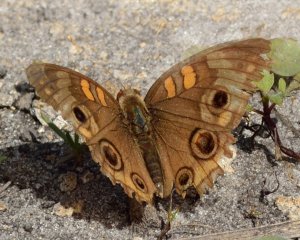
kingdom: Animalia
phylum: Arthropoda
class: Insecta
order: Lepidoptera
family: Nymphalidae
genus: Junonia
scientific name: Junonia evarete
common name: Mangrove Buckeye
